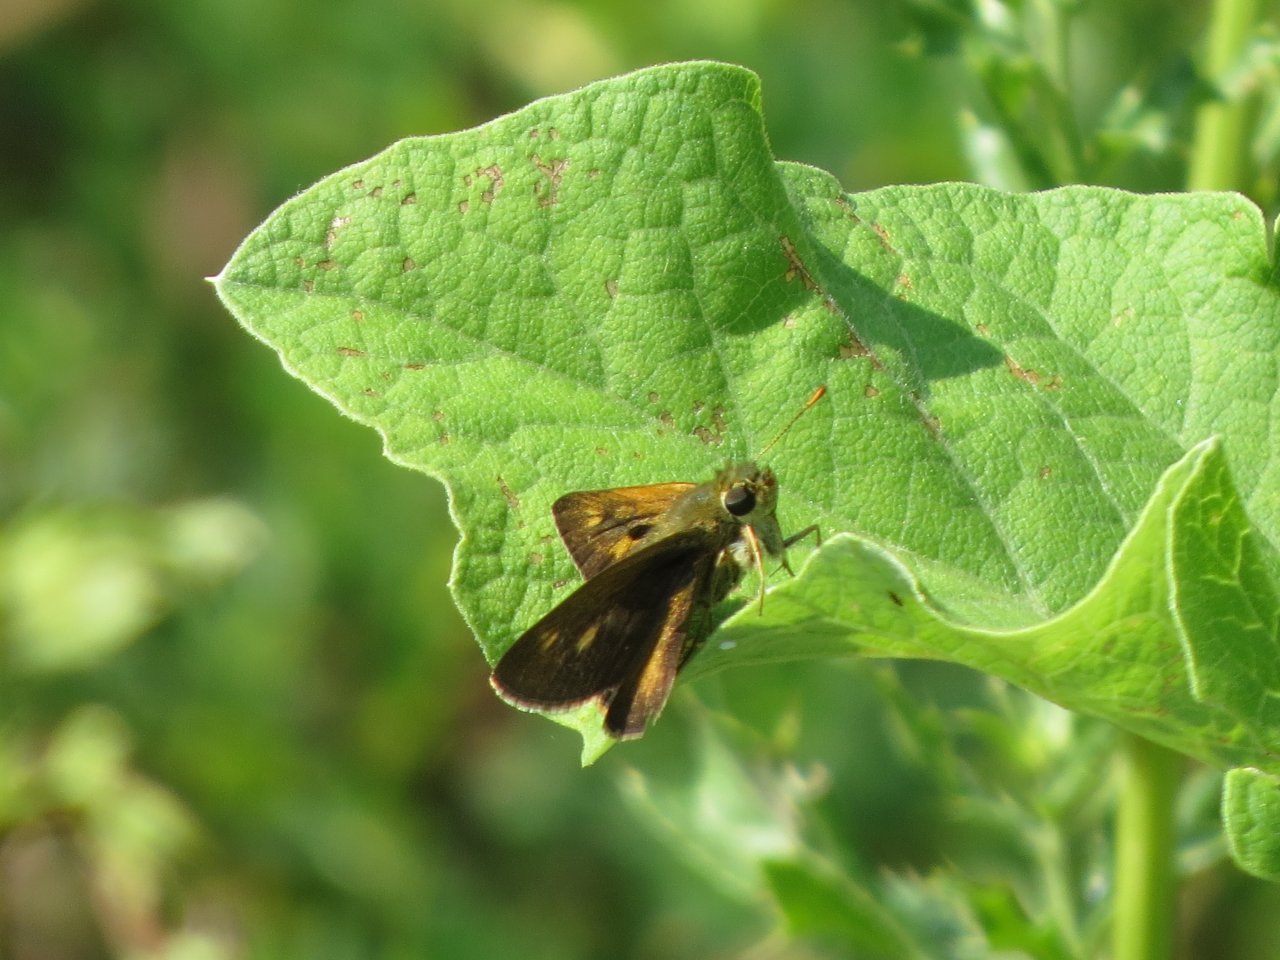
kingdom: Animalia
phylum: Arthropoda
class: Insecta
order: Lepidoptera
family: Hesperiidae
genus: Polites
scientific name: Polites egeremet
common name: Northern Broken-Dash
